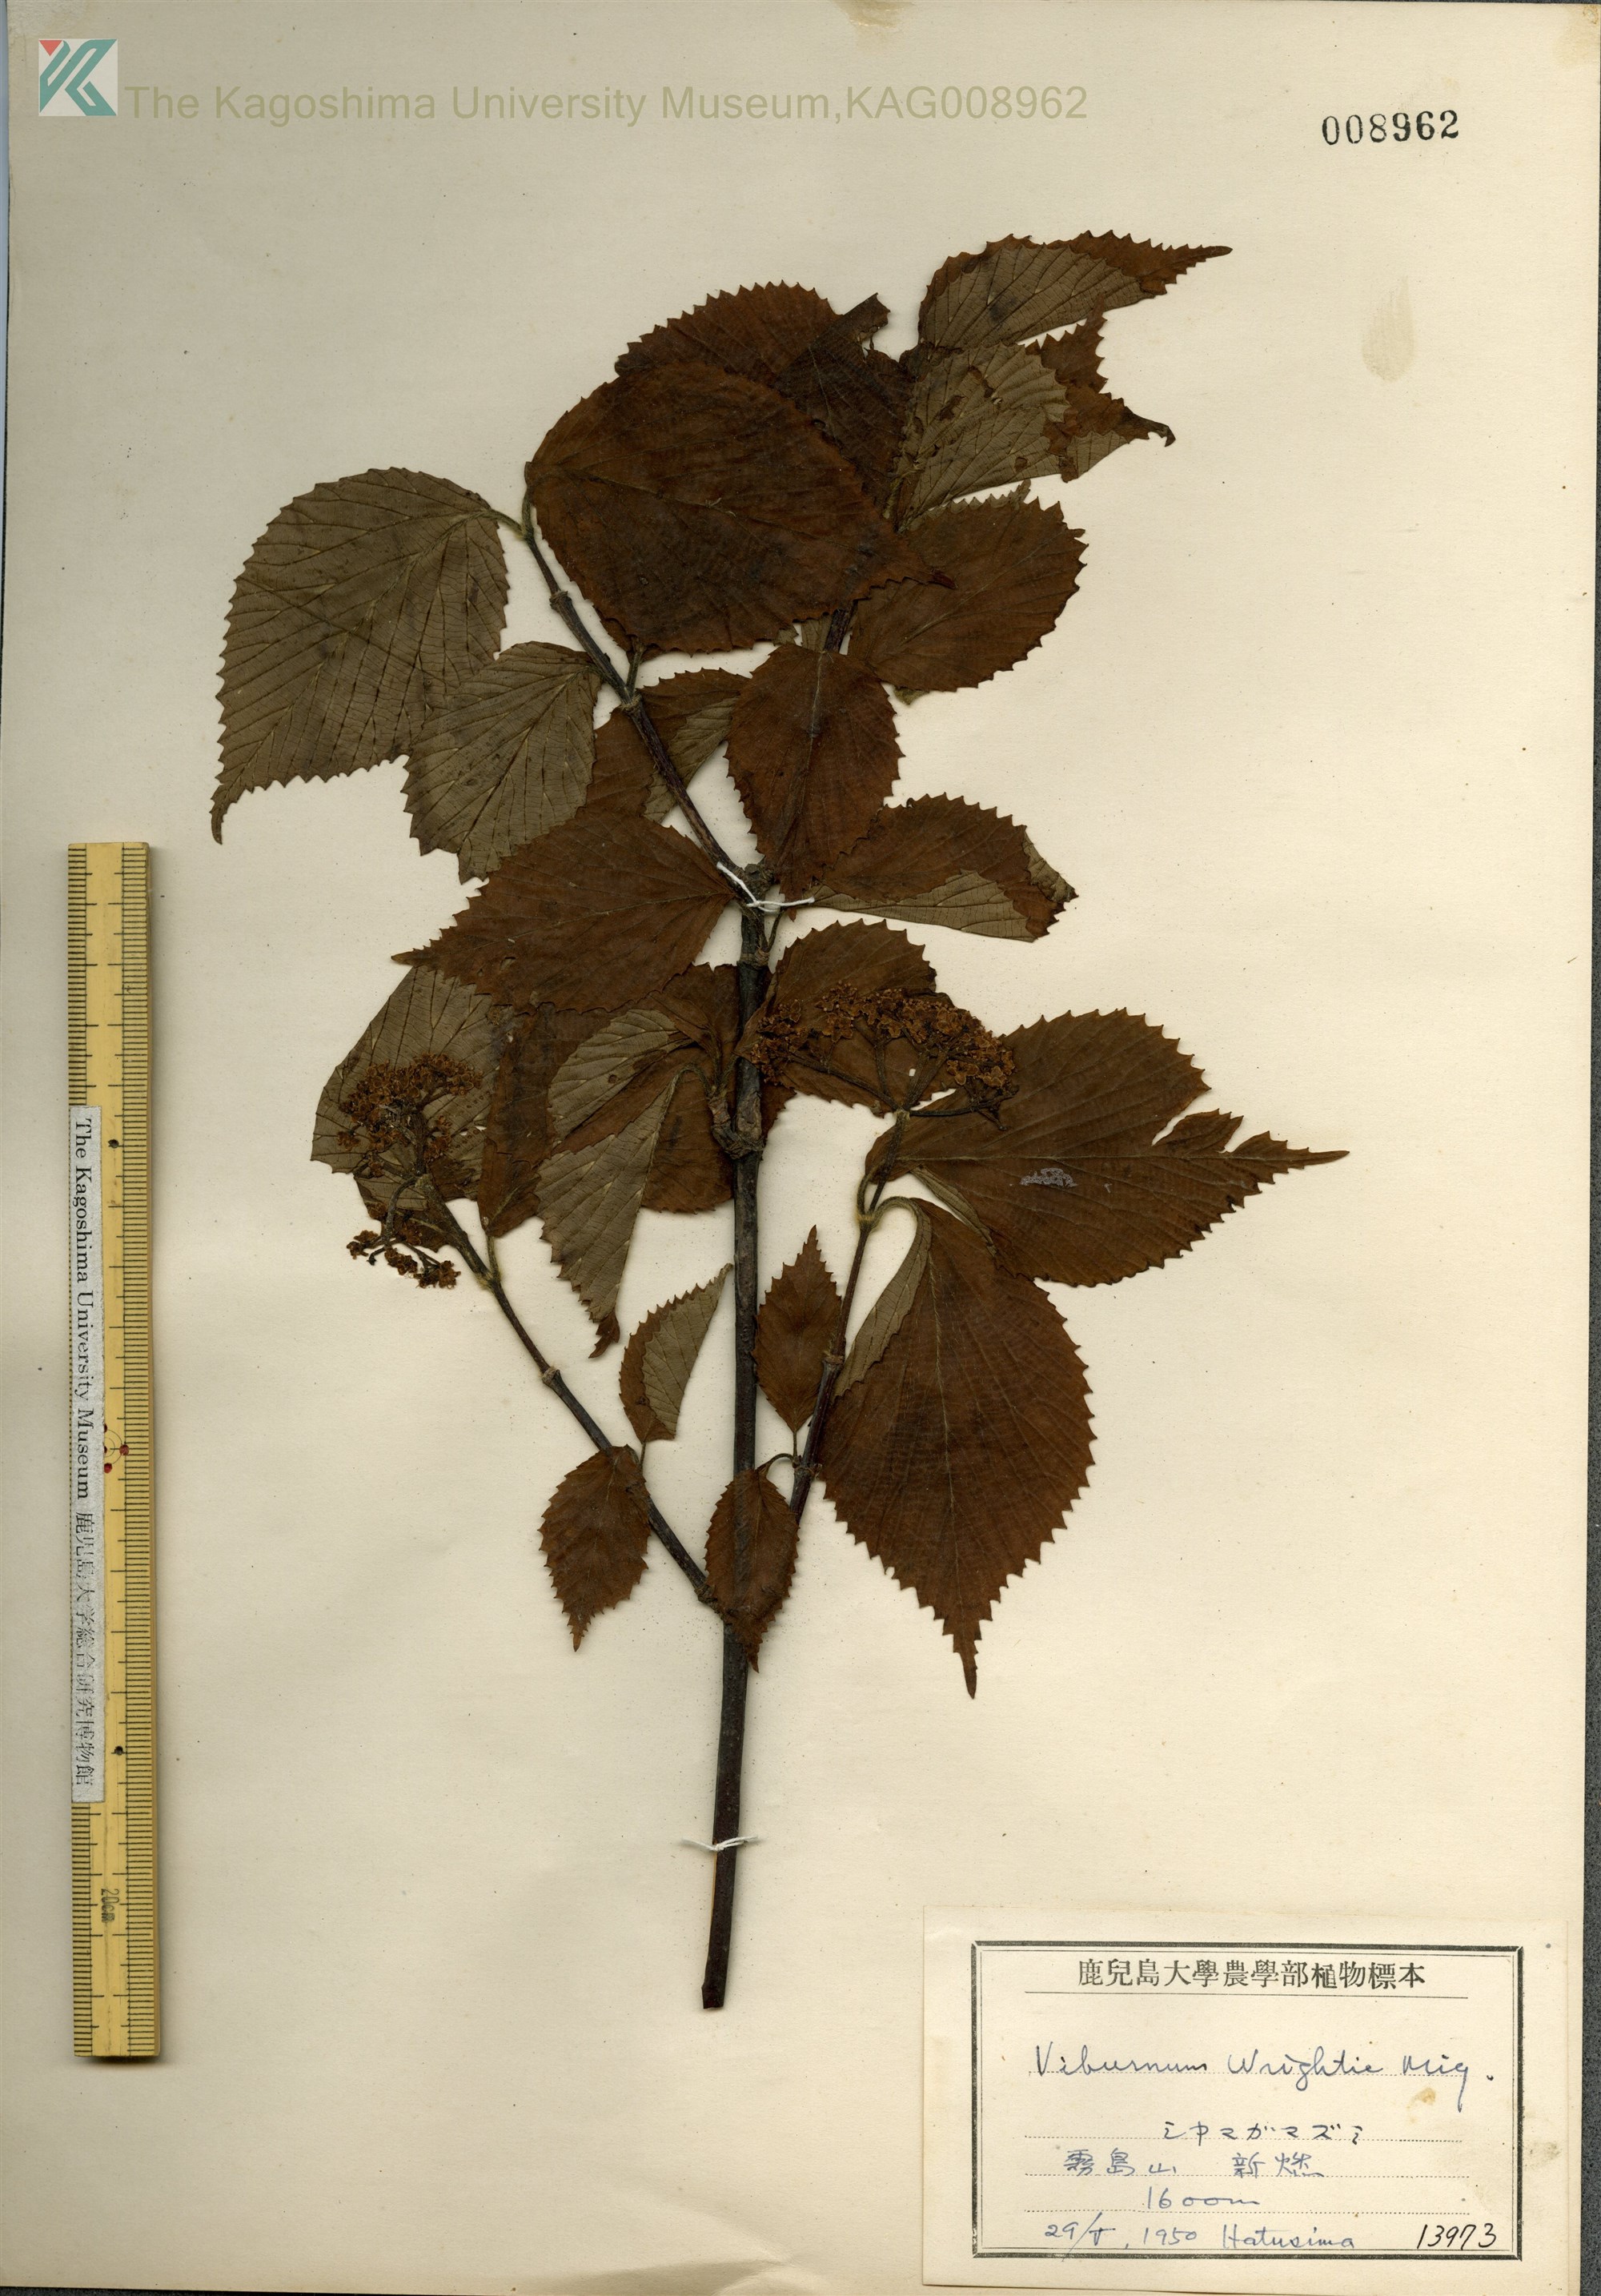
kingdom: Plantae
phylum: Tracheophyta
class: Magnoliopsida
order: Dipsacales
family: Viburnaceae
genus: Viburnum
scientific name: Viburnum wrightii
